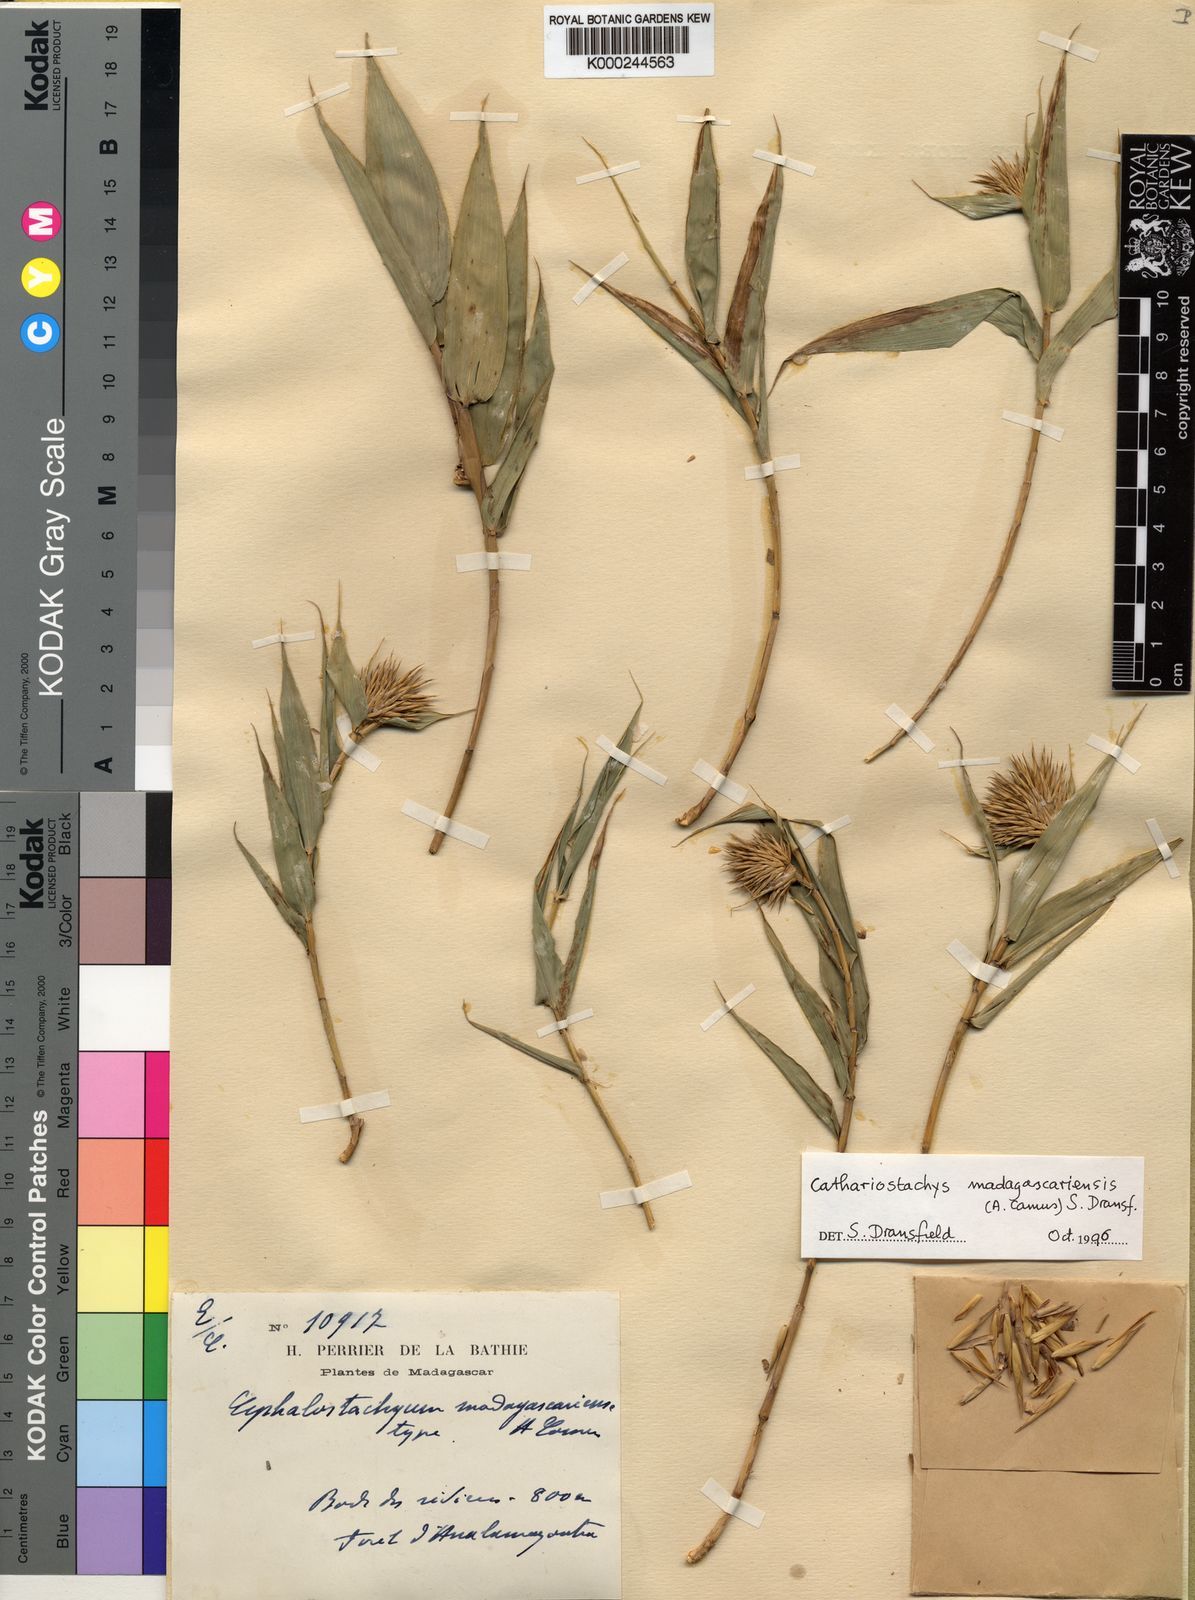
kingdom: Plantae
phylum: Tracheophyta
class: Liliopsida
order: Poales
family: Poaceae
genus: Cathariostachys
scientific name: Cathariostachys madagascariensis
